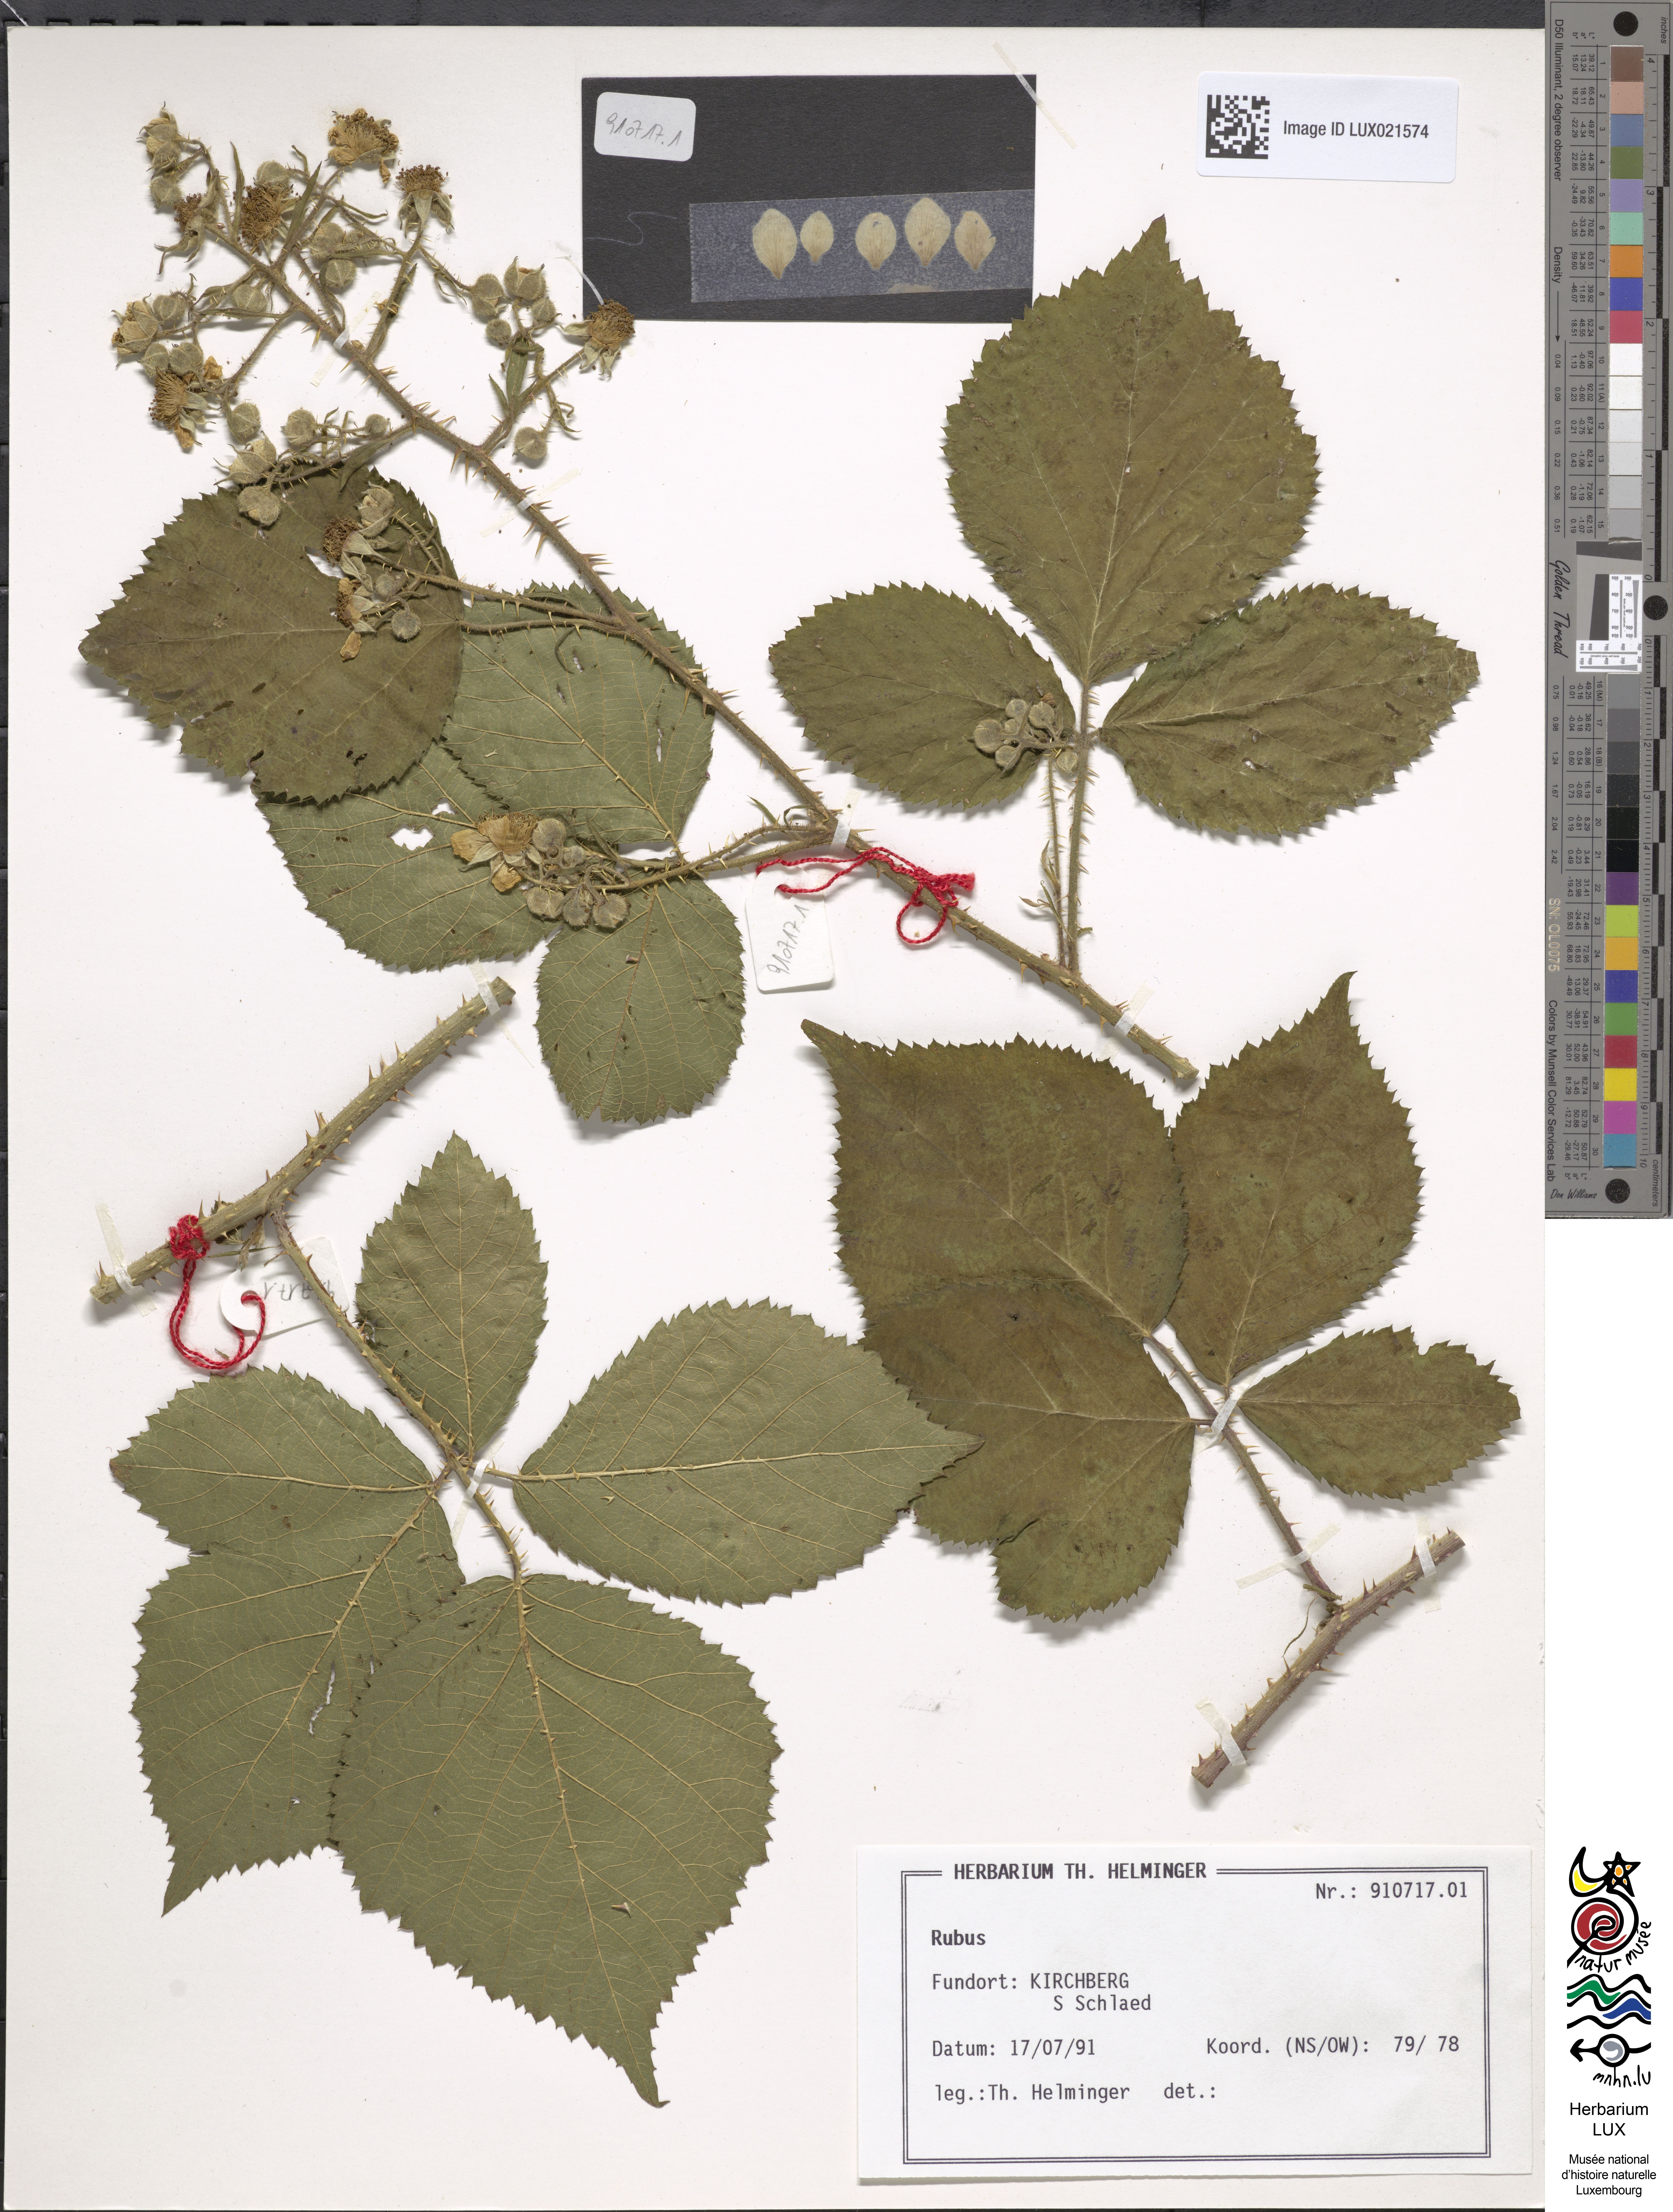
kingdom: Plantae
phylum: Tracheophyta
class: Magnoliopsida
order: Rosales
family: Rosaceae
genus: Rubus
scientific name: Rubus
